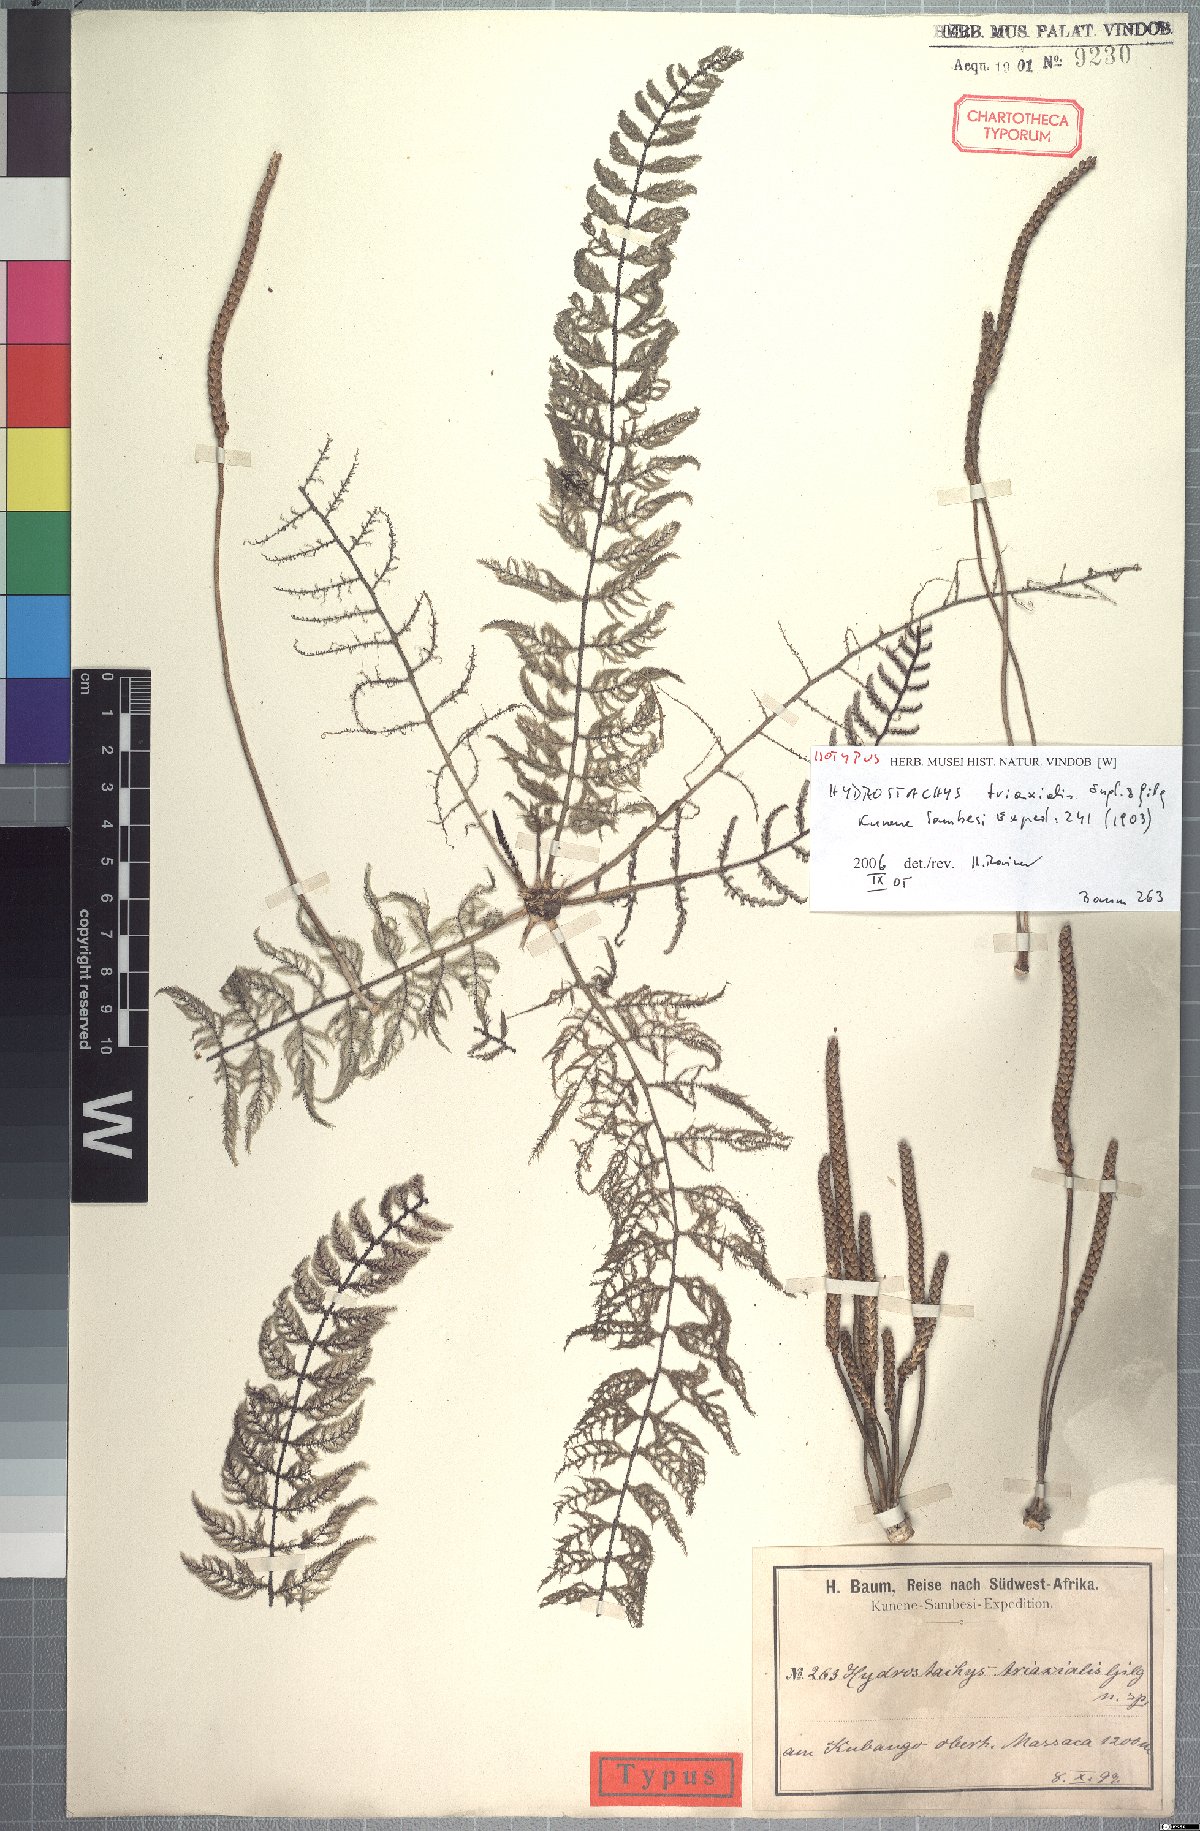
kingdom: Plantae
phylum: Tracheophyta
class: Magnoliopsida
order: Cornales
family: Hydrostachyaceae
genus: Hydrostachys
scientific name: Hydrostachys triaxialis
